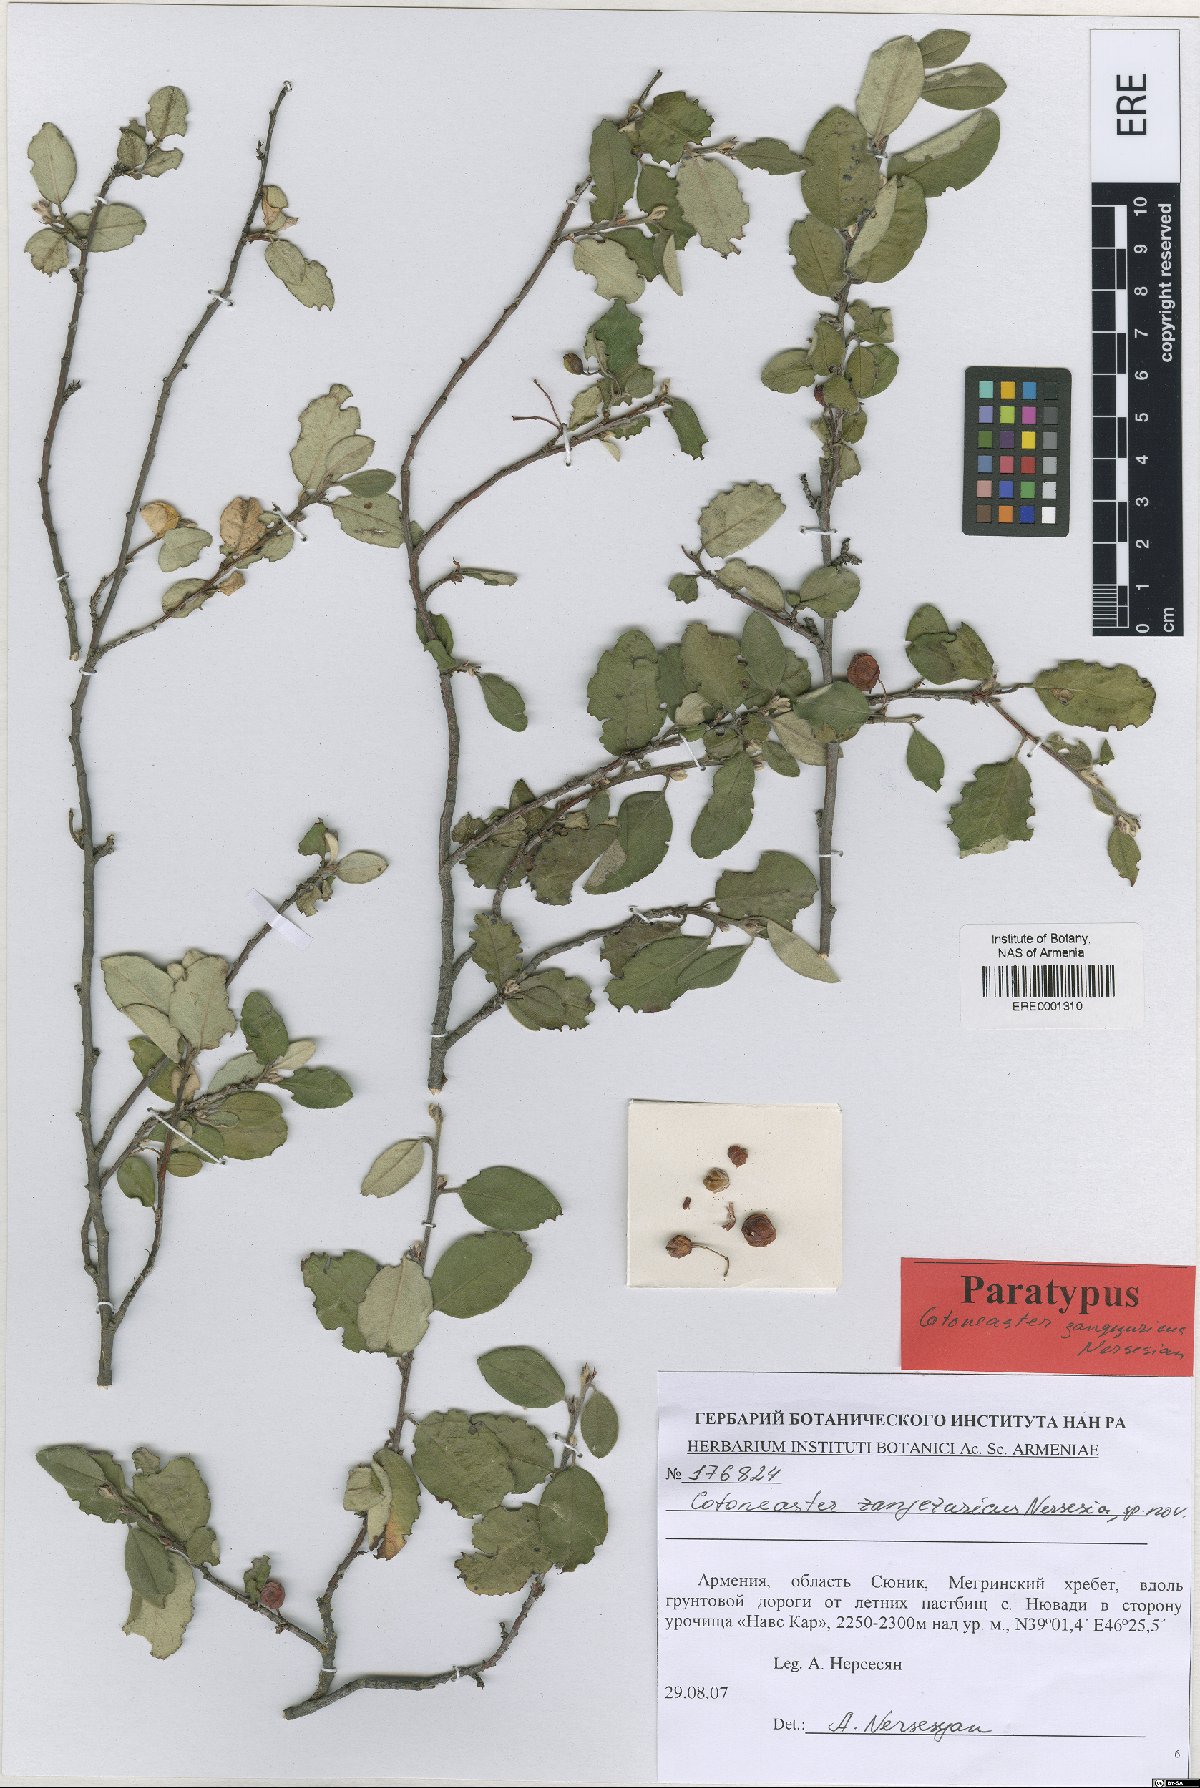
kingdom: Plantae
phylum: Tracheophyta
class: Magnoliopsida
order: Rosales
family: Rosaceae
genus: Cotoneaster
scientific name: Cotoneaster zangezuricus
